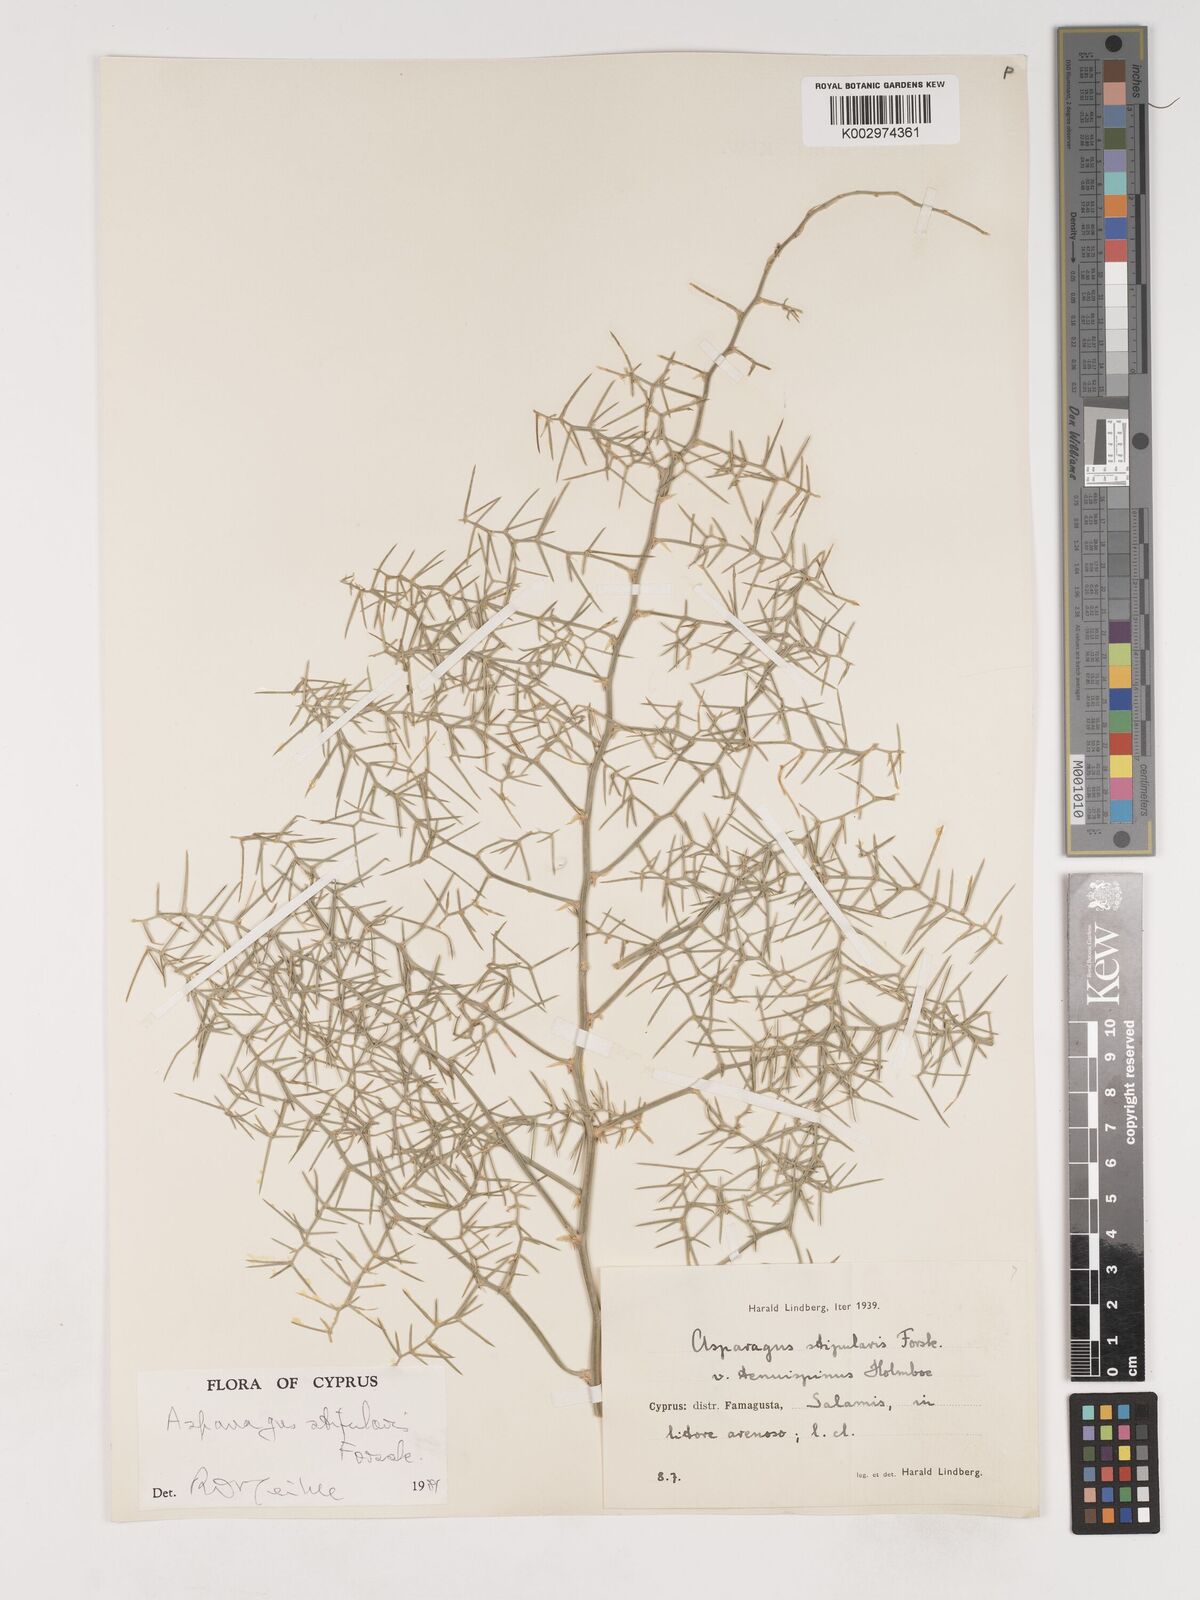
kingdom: Plantae
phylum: Tracheophyta
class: Liliopsida
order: Asparagales
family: Asparagaceae
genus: Asparagus
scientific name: Asparagus horridus
